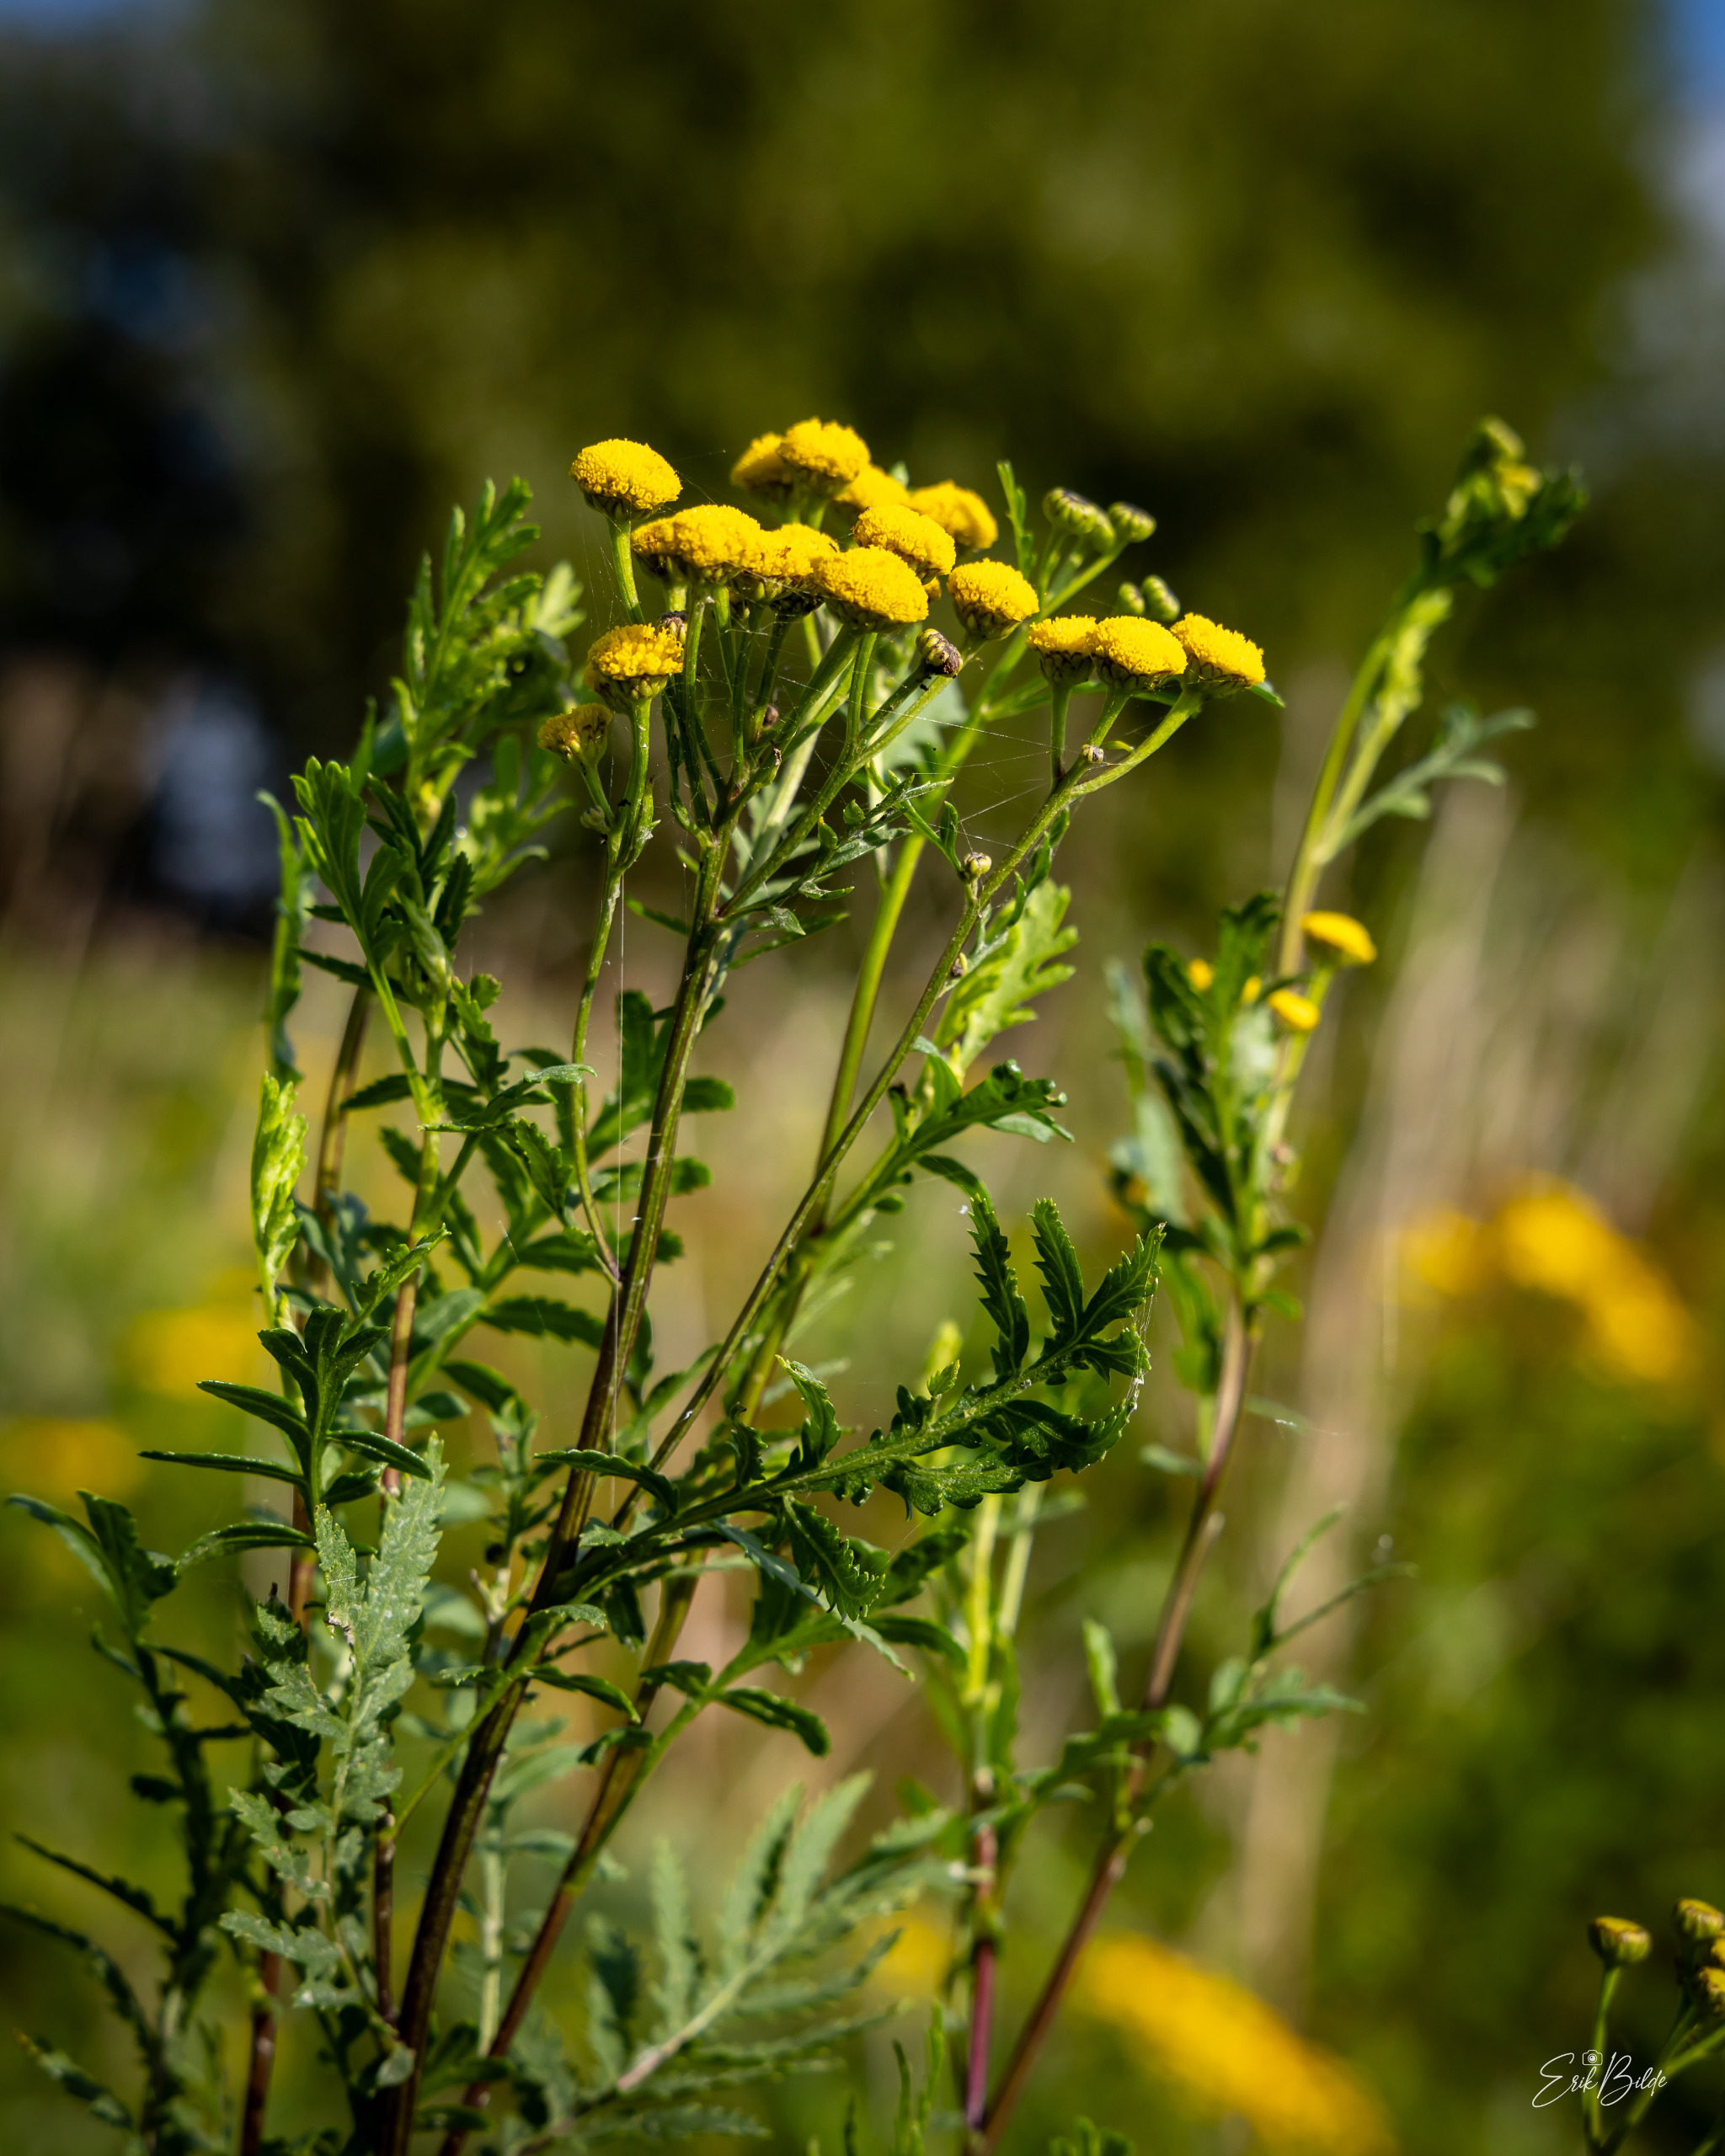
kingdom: Plantae
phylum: Tracheophyta
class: Magnoliopsida
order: Asterales
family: Asteraceae
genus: Tanacetum
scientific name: Tanacetum vulgare
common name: Rejnfan
